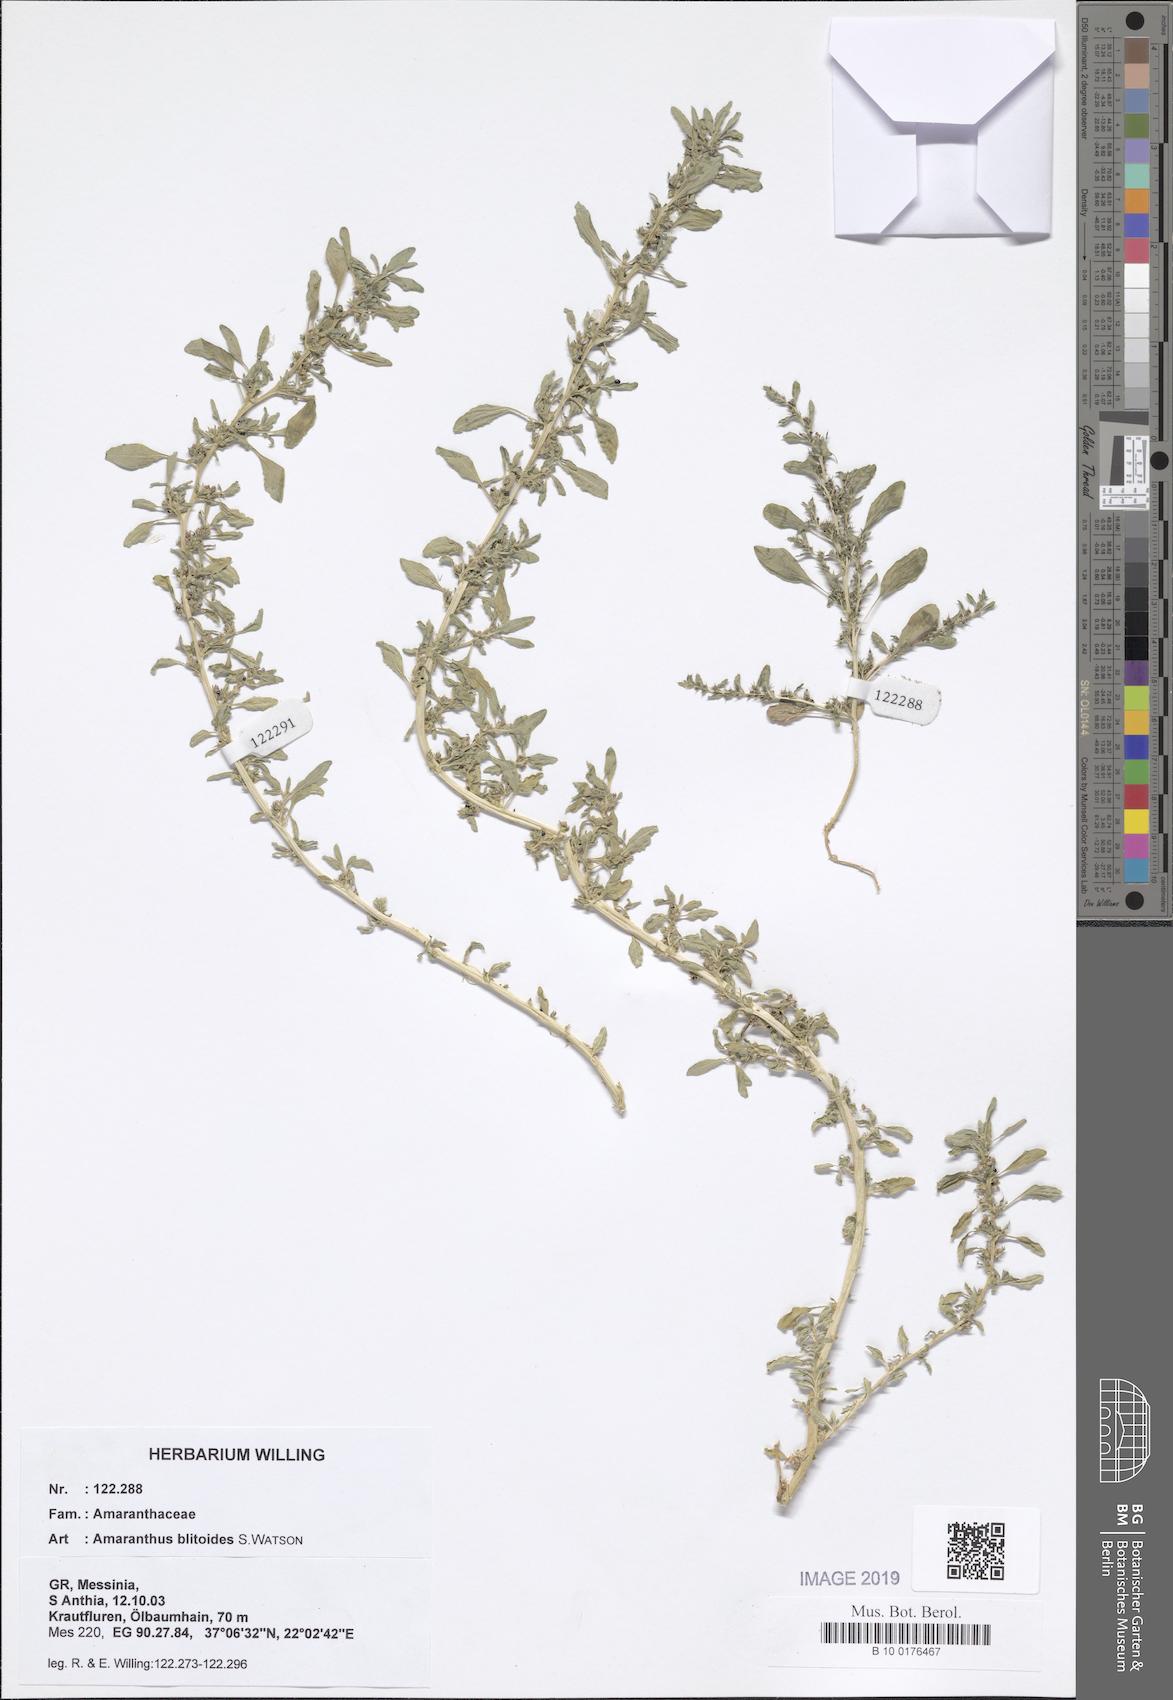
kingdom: Plantae
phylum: Tracheophyta
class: Magnoliopsida
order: Caryophyllales
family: Amaranthaceae
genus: Amaranthus
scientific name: Amaranthus blitoides
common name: Prostrate pigweed
